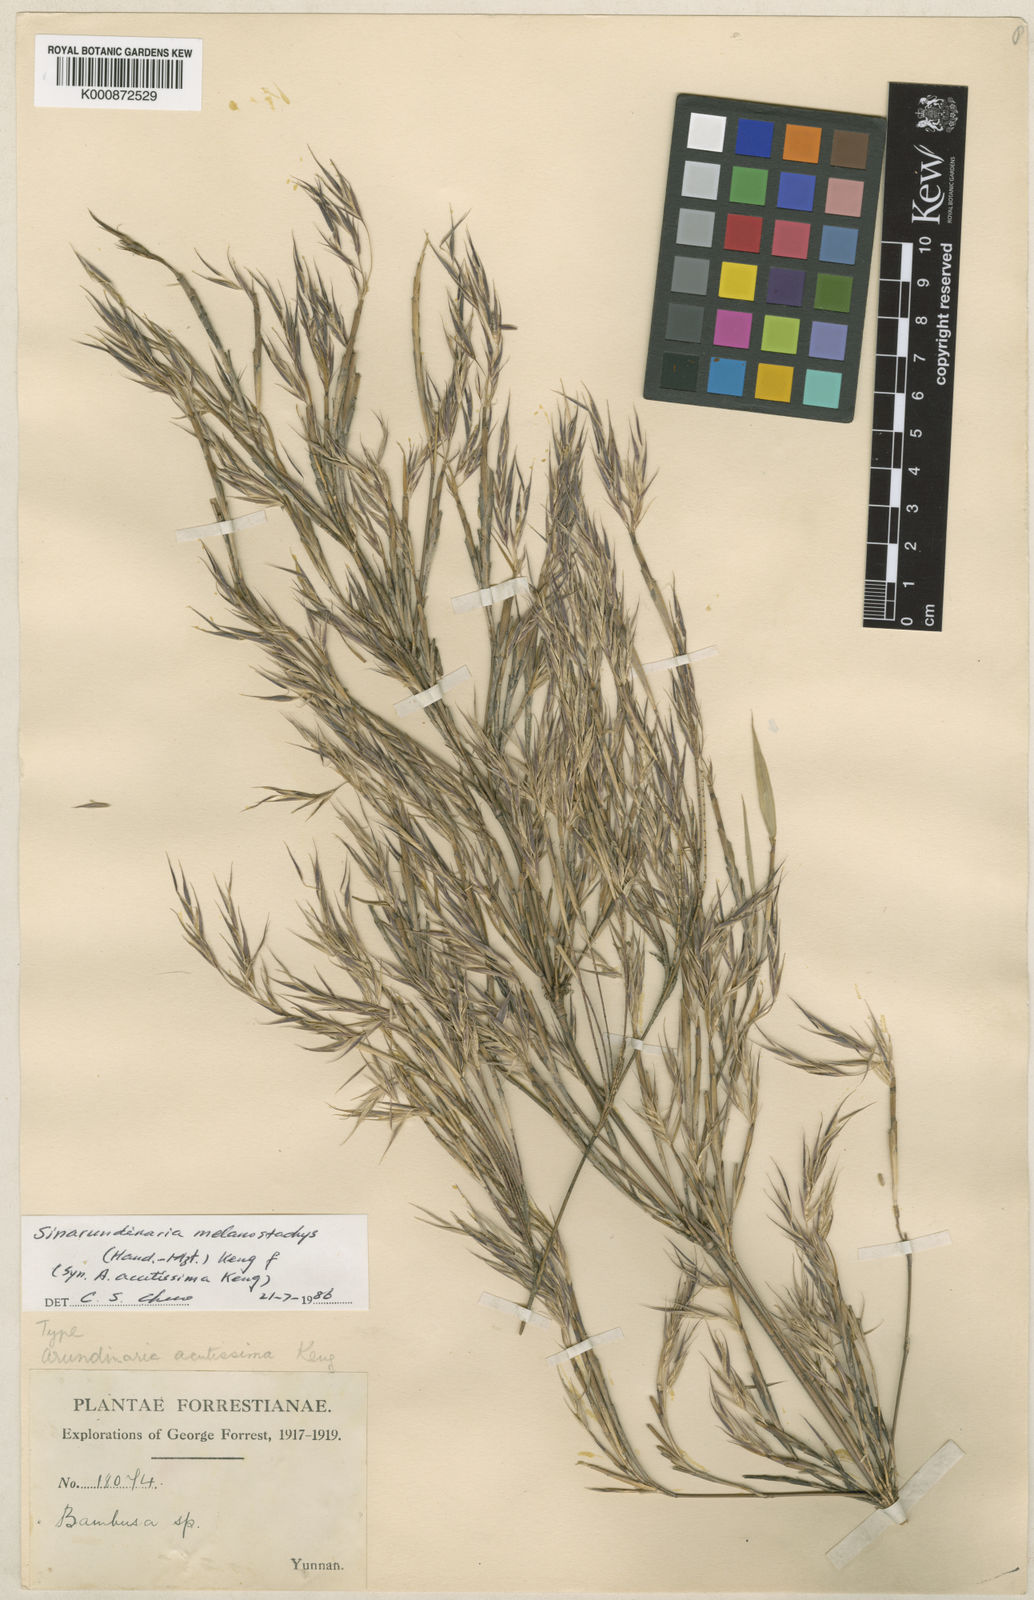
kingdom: Plantae
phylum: Tracheophyta
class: Liliopsida
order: Poales
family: Poaceae
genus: Fargesia
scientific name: Fargesia melanostachys
